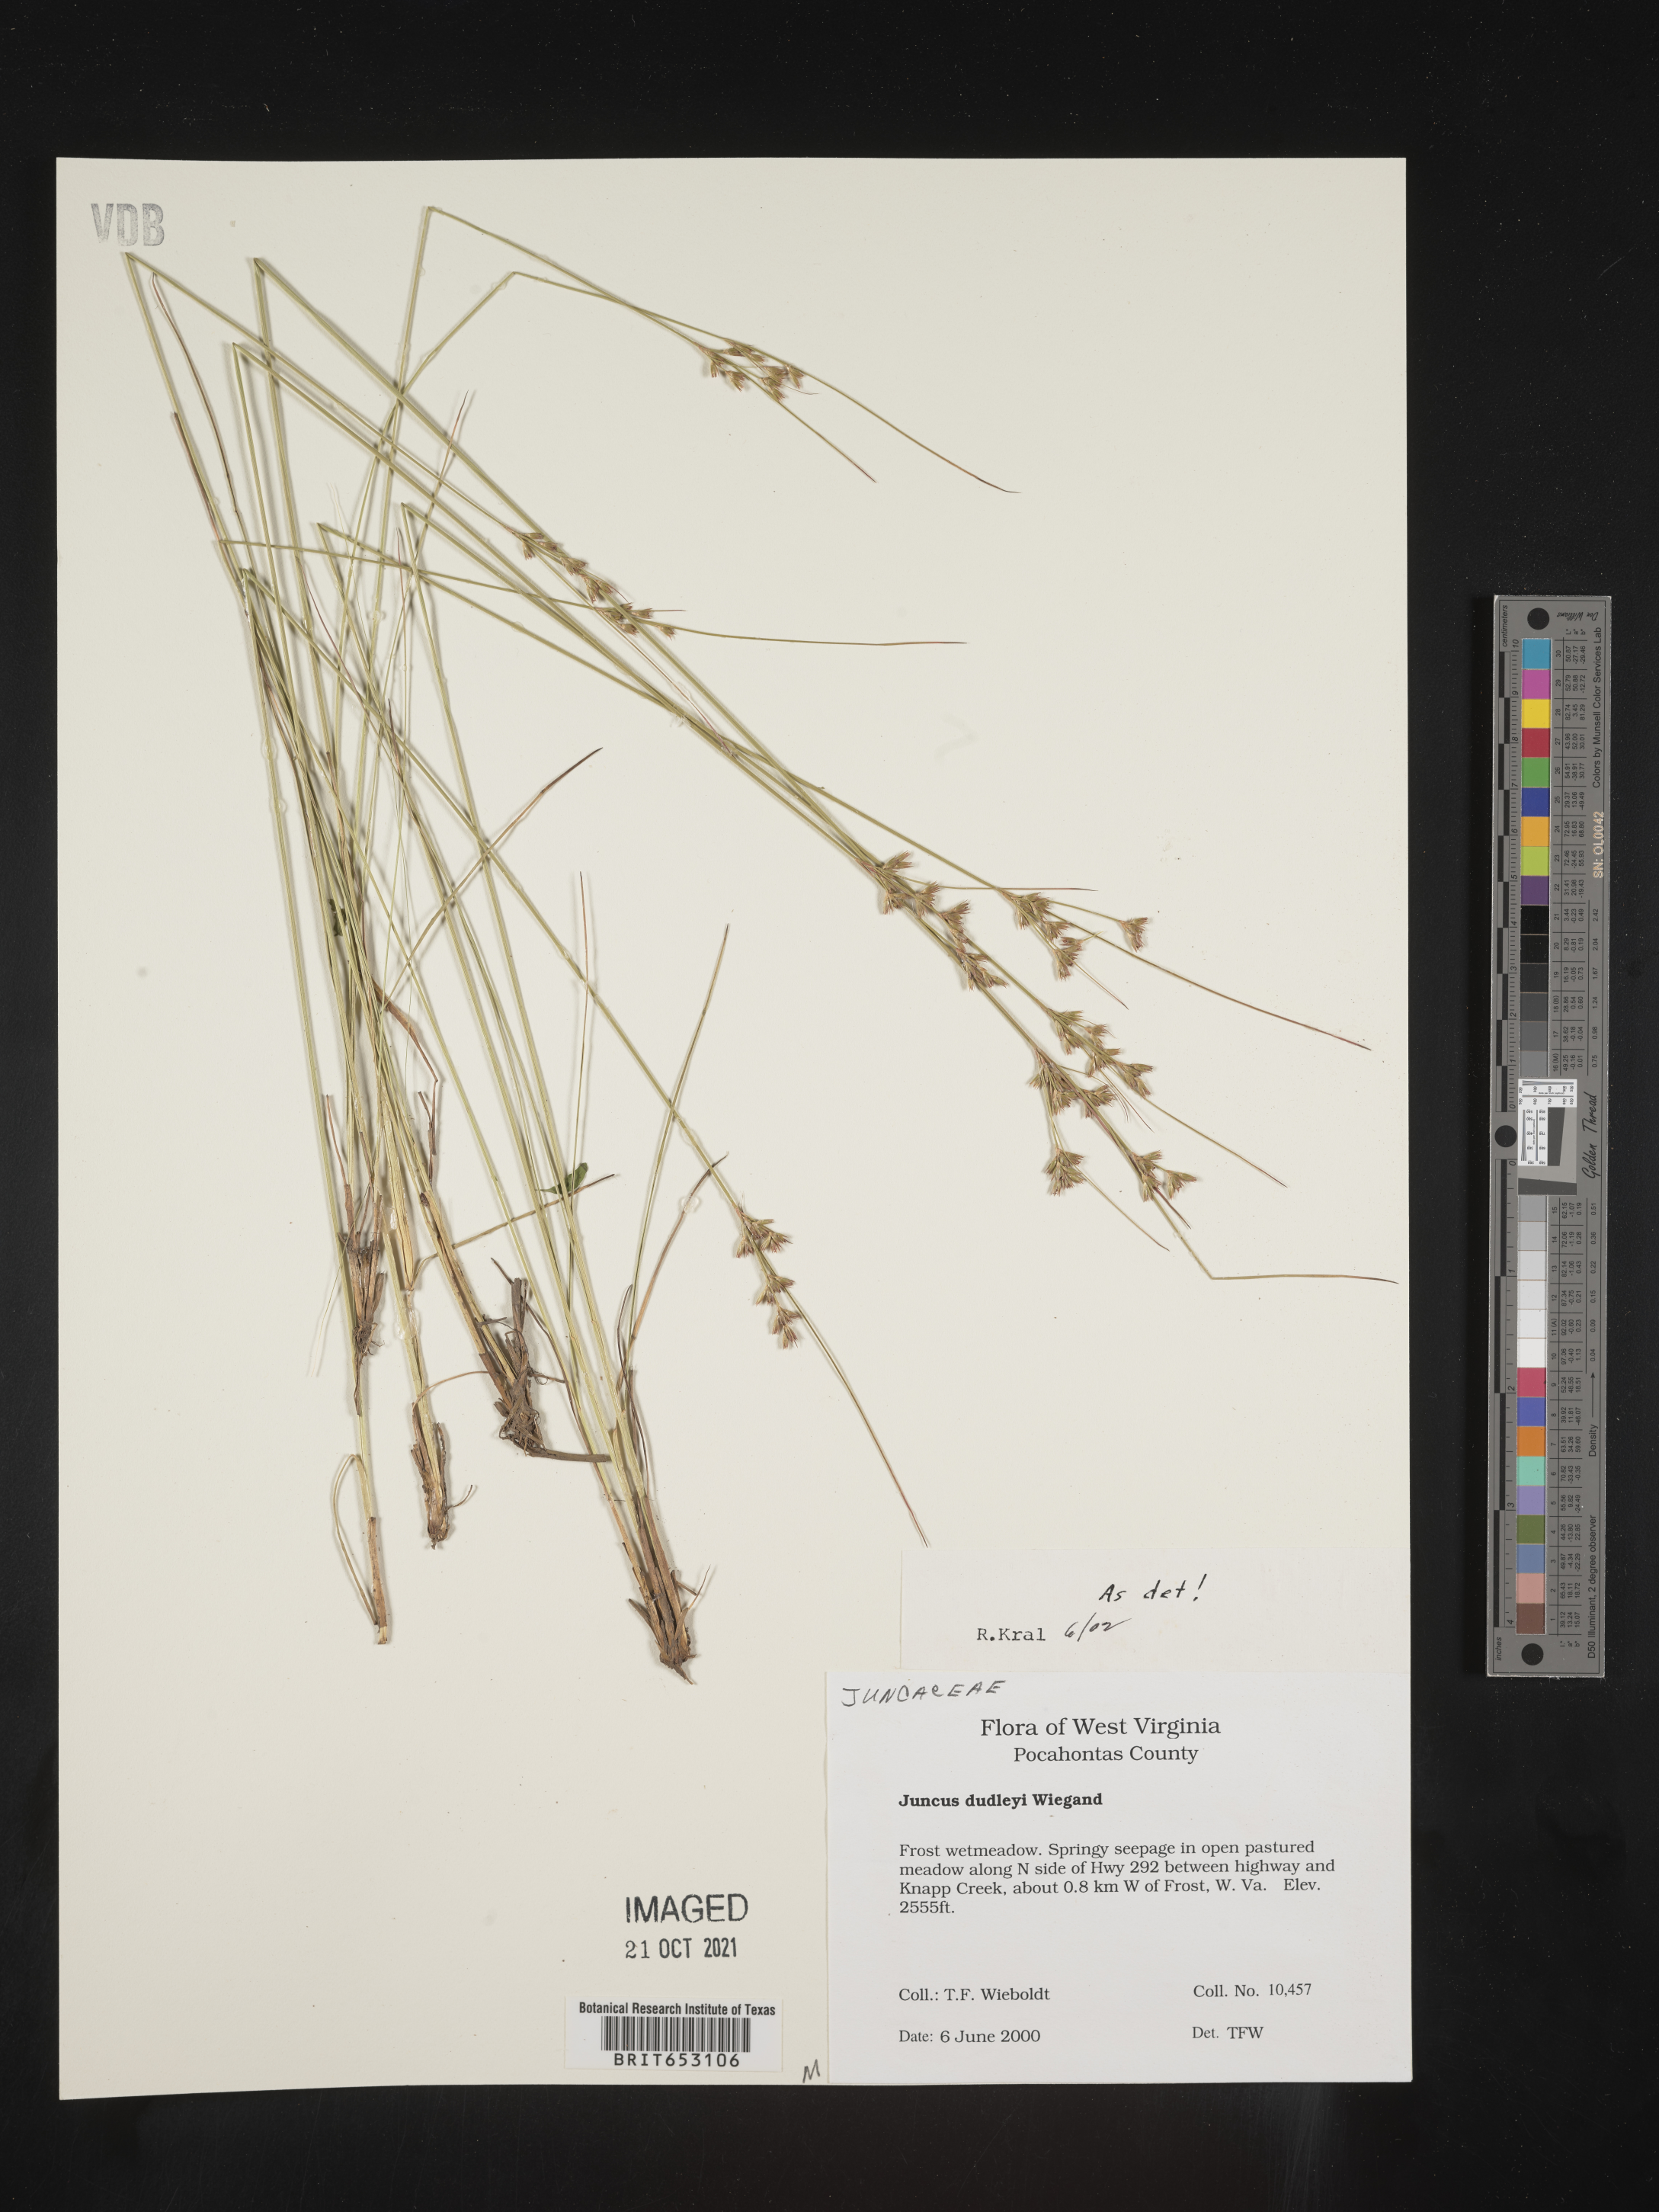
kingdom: Plantae
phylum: Tracheophyta
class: Liliopsida
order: Poales
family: Juncaceae
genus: Juncus
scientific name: Juncus dudleyi
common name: Dudley's rush
